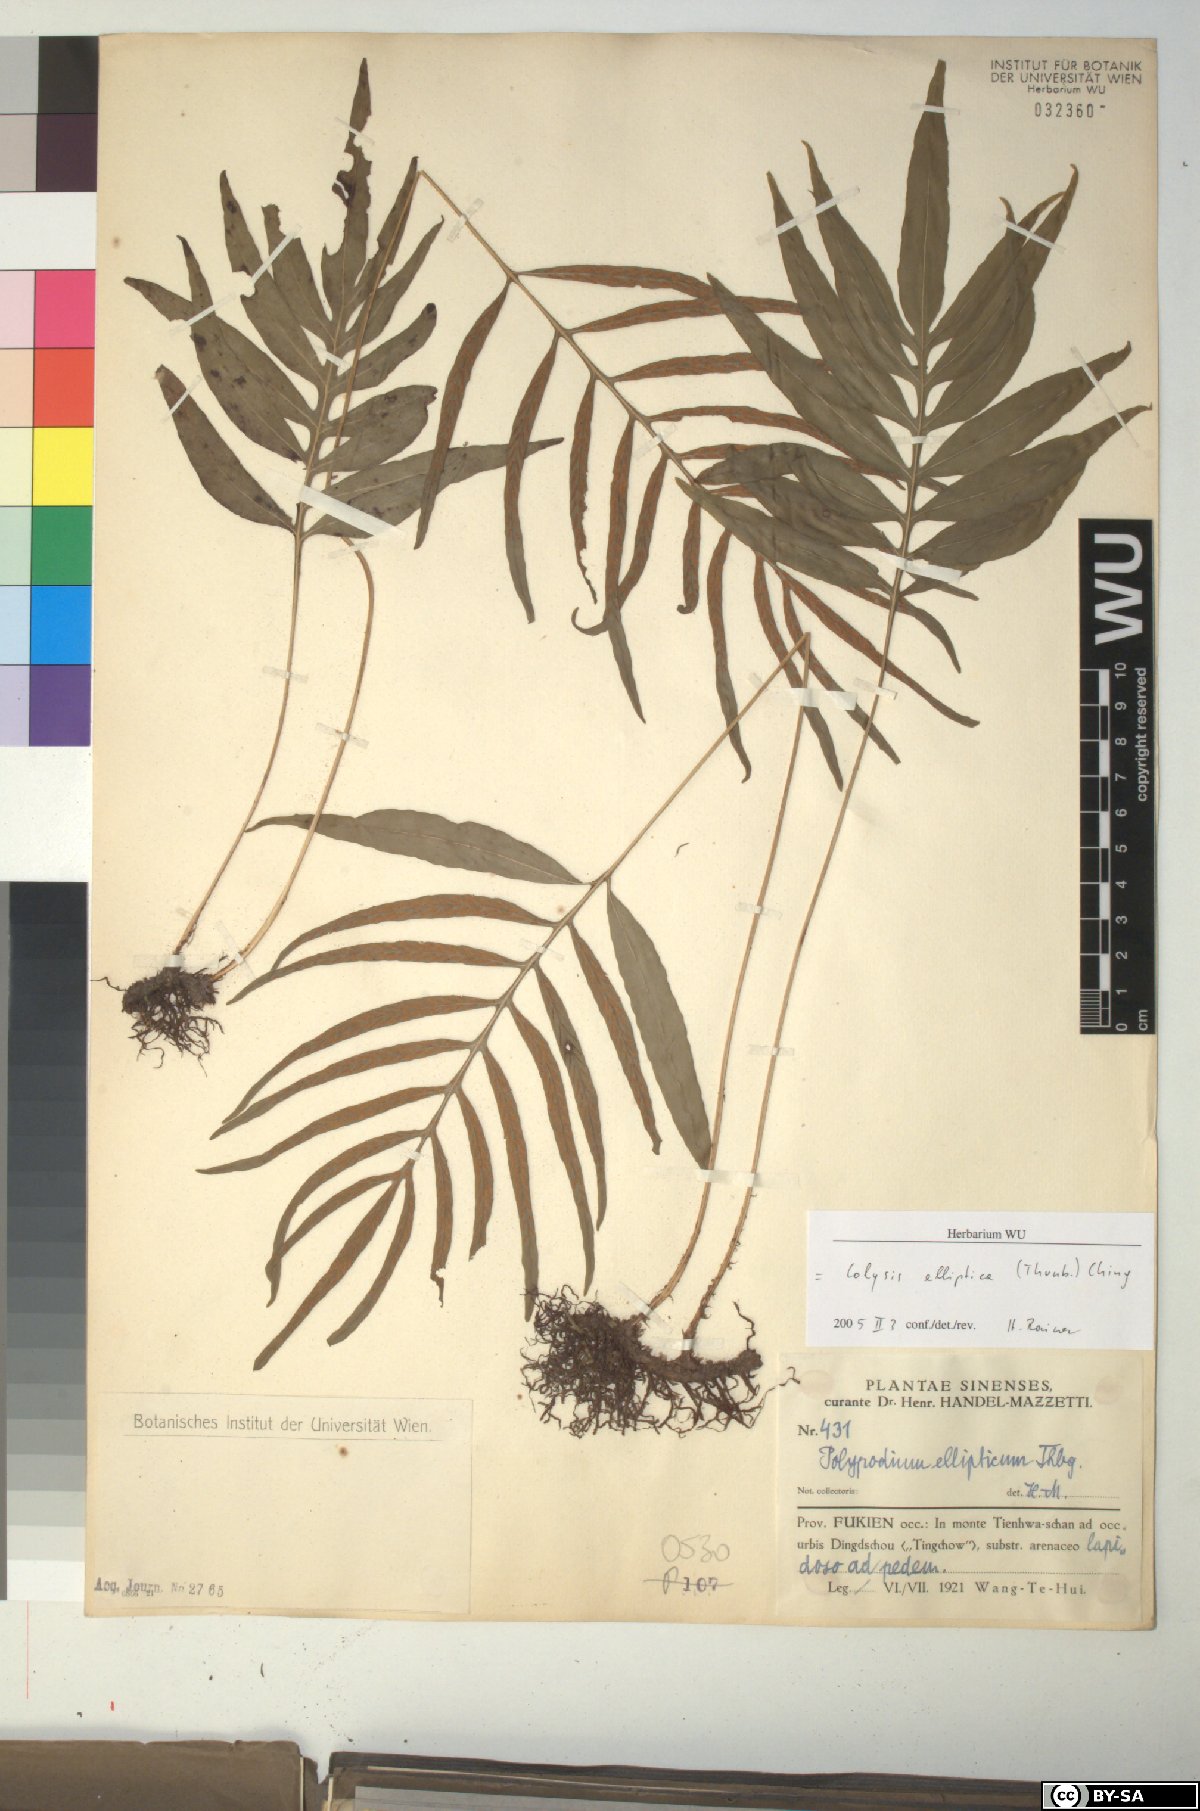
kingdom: Plantae
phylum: Tracheophyta
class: Polypodiopsida
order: Polypodiales
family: Polypodiaceae
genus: Leptochilus
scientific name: Leptochilus ellipticus
